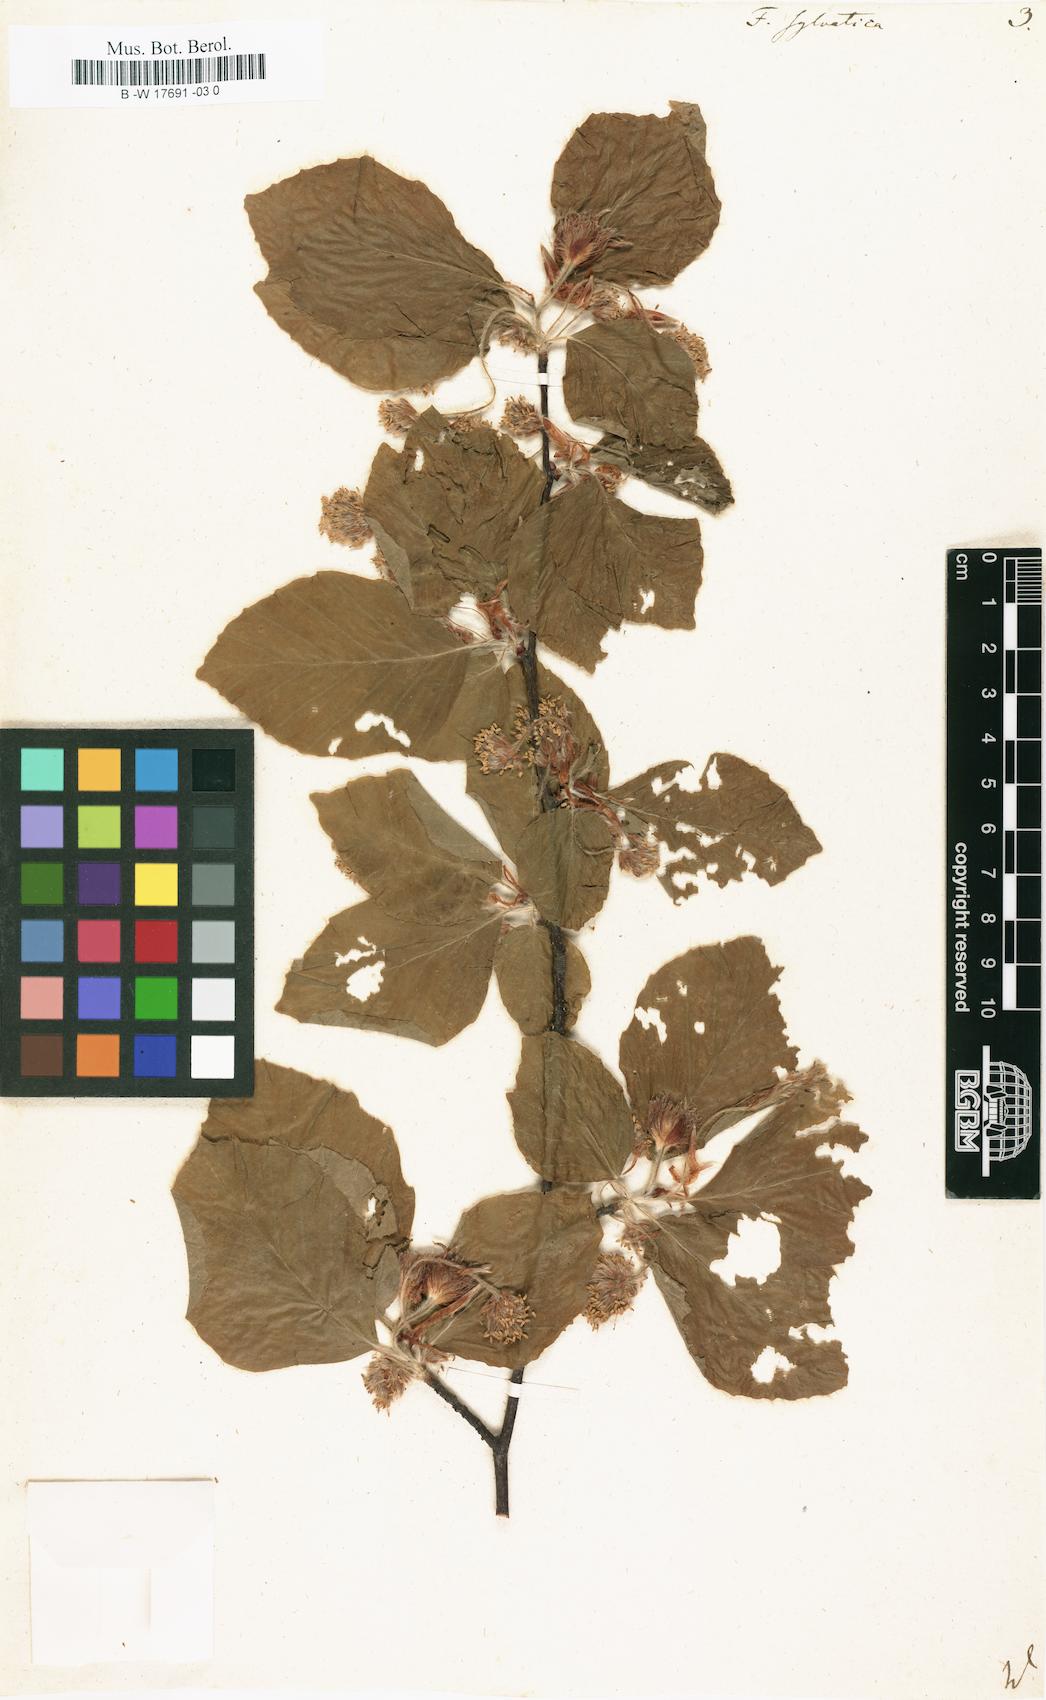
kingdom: Plantae
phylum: Tracheophyta
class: Magnoliopsida
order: Fagales
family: Fagaceae
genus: Fagus
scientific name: Fagus sylvatica
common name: Beech
